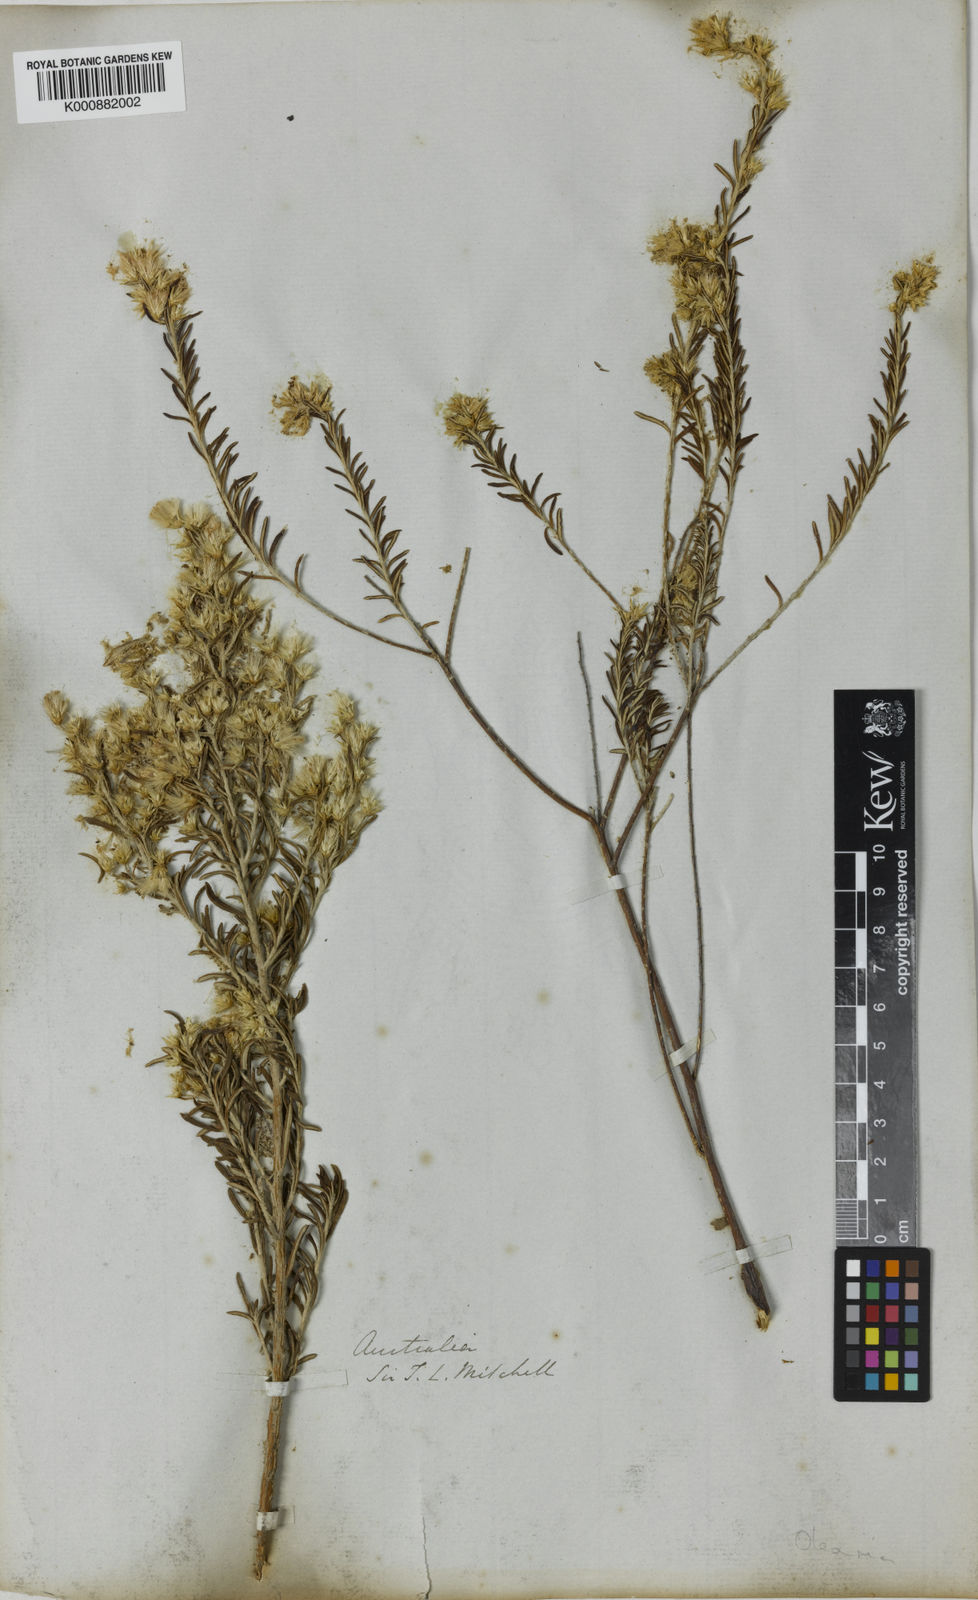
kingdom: Plantae
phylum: Tracheophyta
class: Magnoliopsida
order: Asterales
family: Asteraceae
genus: Olearia
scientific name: Olearia subspicata
